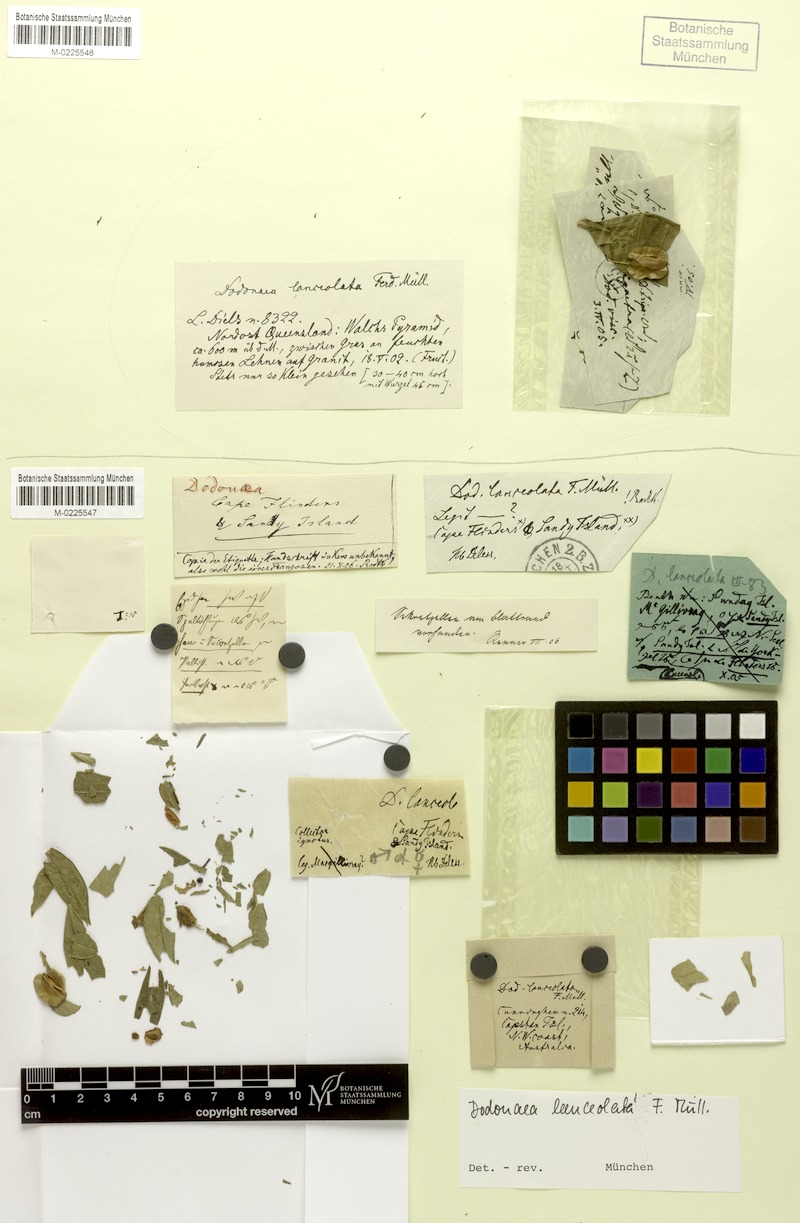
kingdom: Plantae
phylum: Tracheophyta
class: Magnoliopsida
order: Sapindales
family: Sapindaceae
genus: Dodonaea
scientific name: Dodonaea lanceolata
